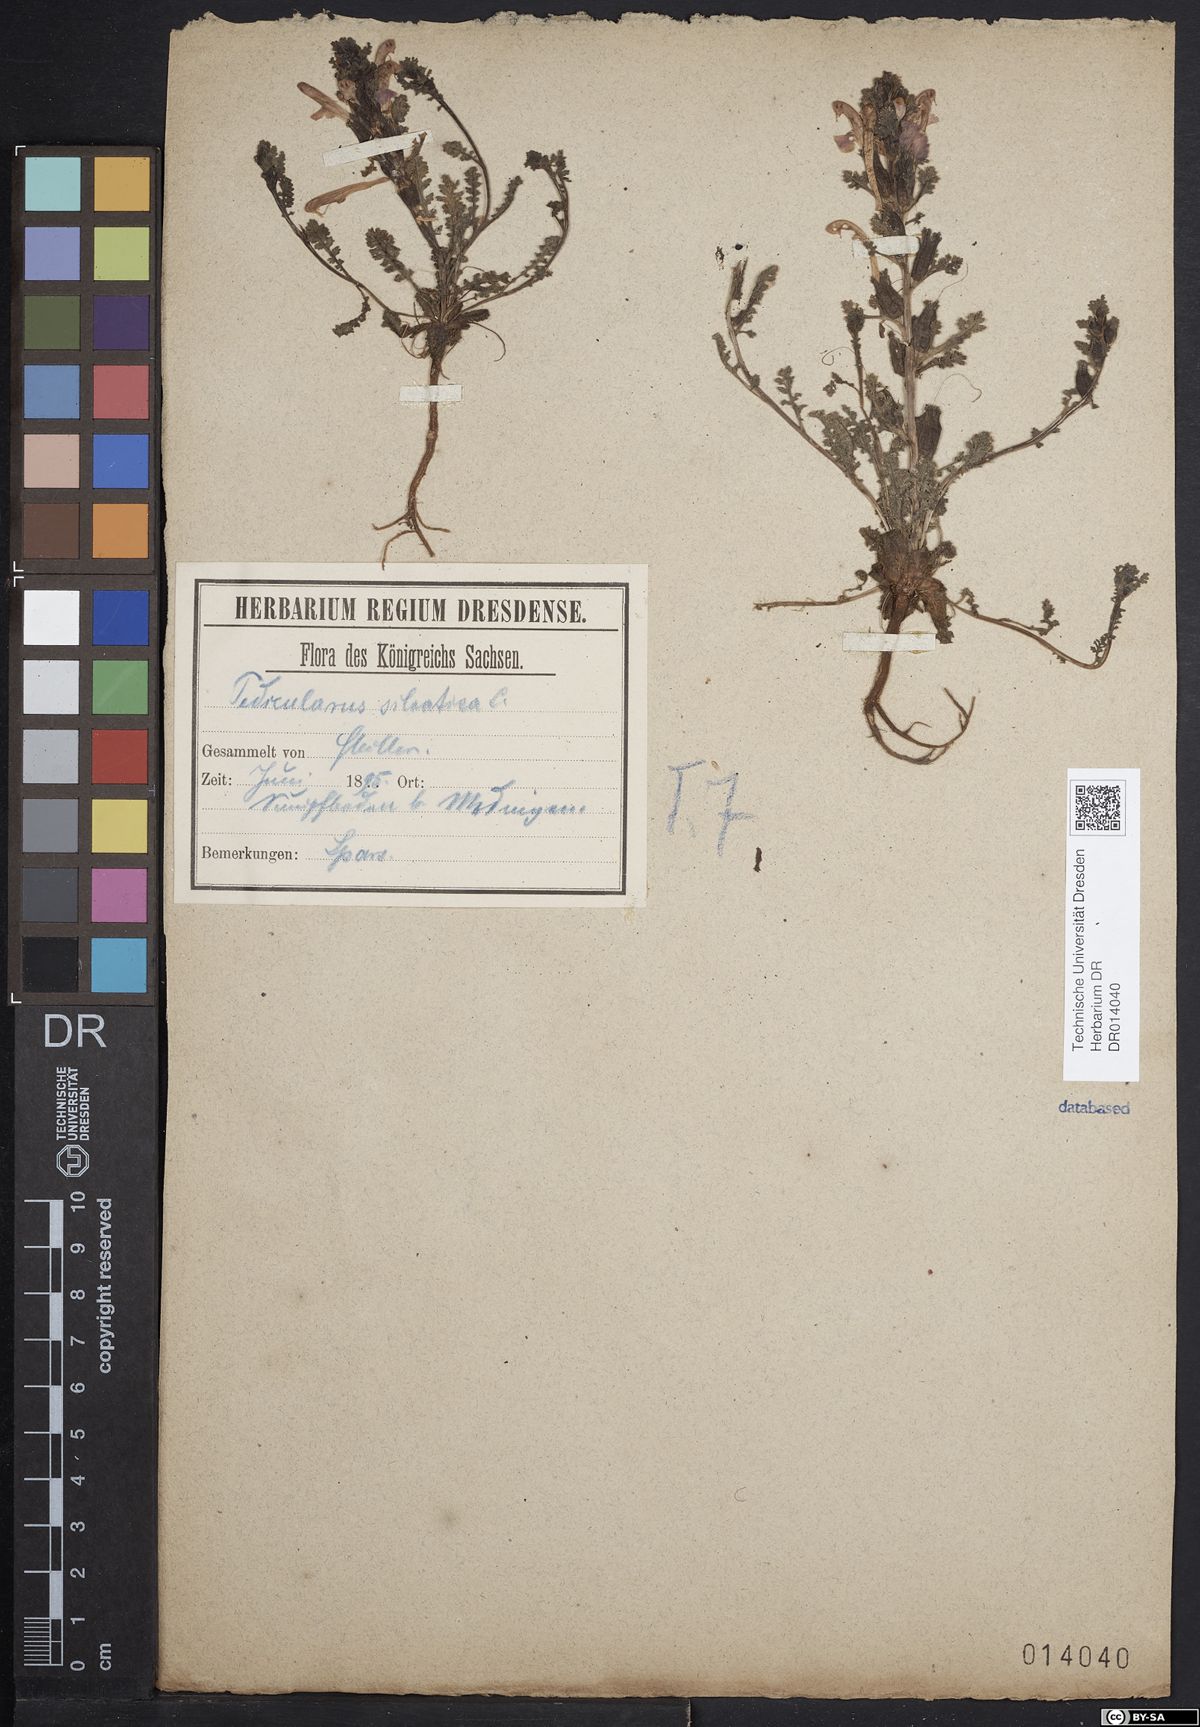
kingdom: Plantae
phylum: Tracheophyta
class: Magnoliopsida
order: Lamiales
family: Orobanchaceae
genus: Pedicularis
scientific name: Pedicularis sylvatica
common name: Lousewort
